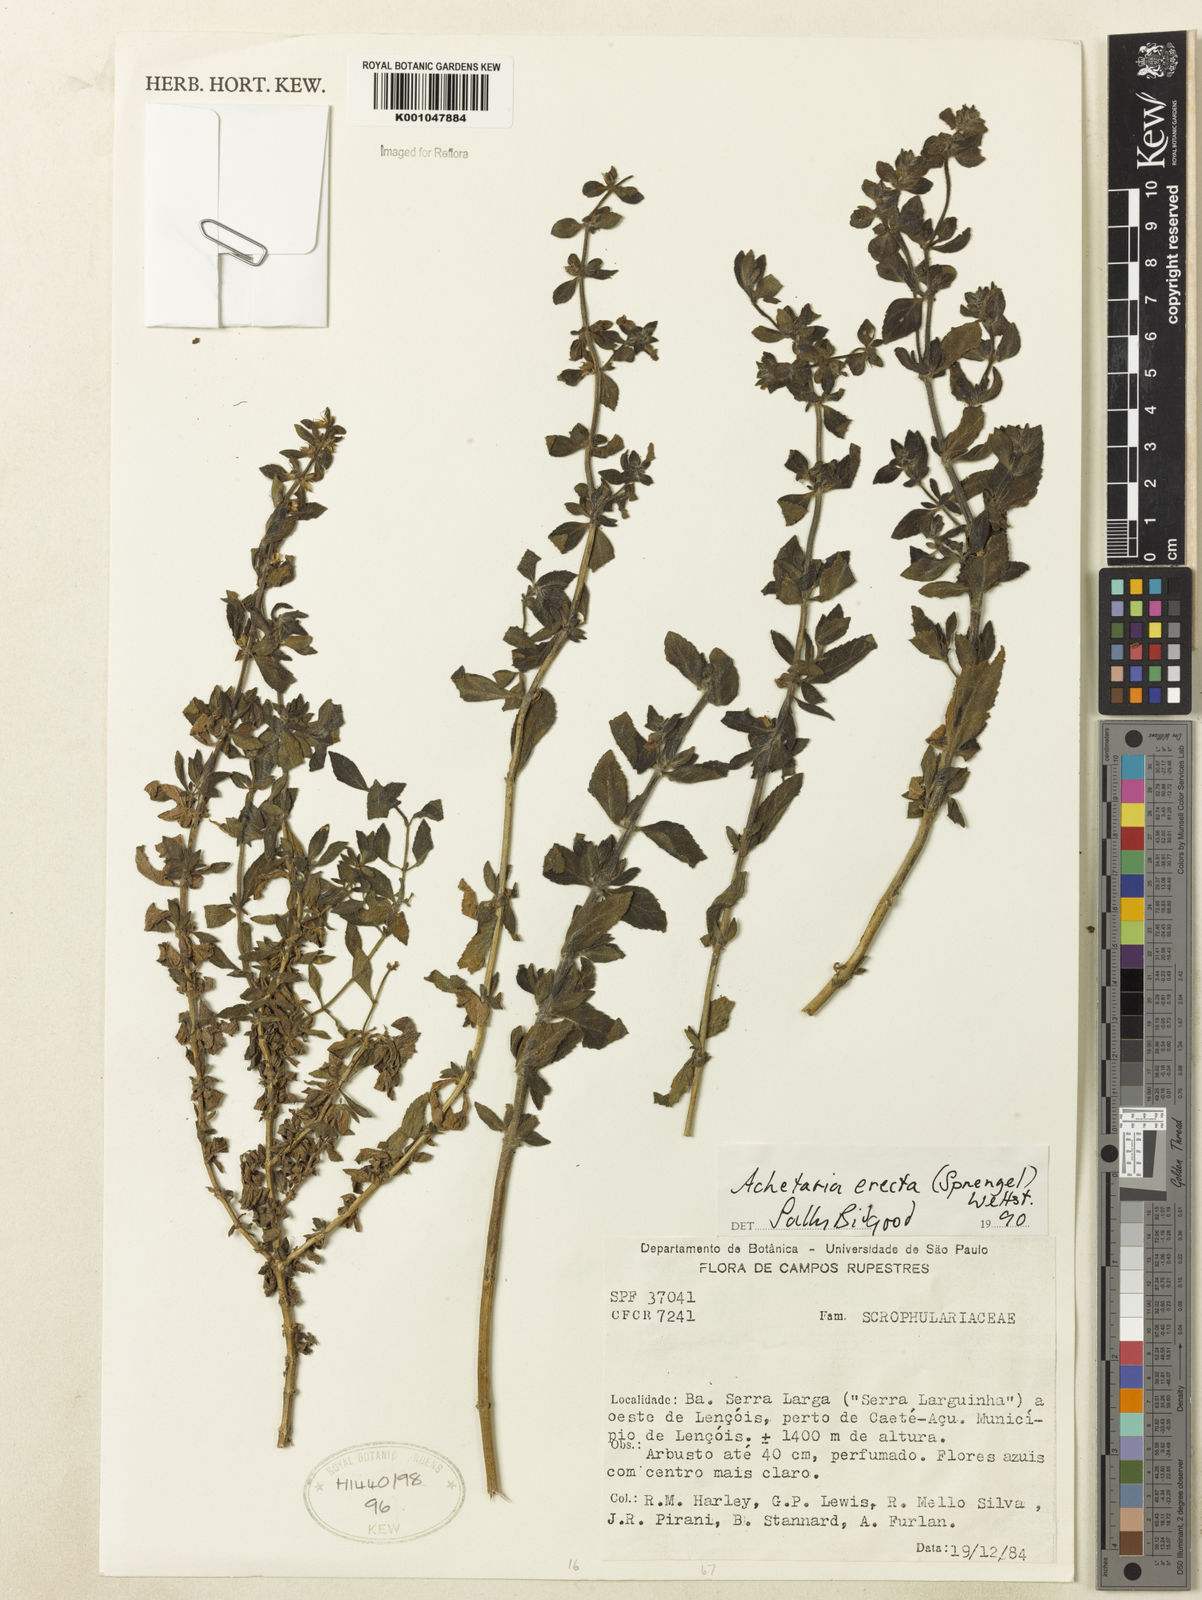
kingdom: Plantae
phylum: Tracheophyta
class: Magnoliopsida
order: Lamiales
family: Plantaginaceae
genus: Matourea
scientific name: Matourea erecta
